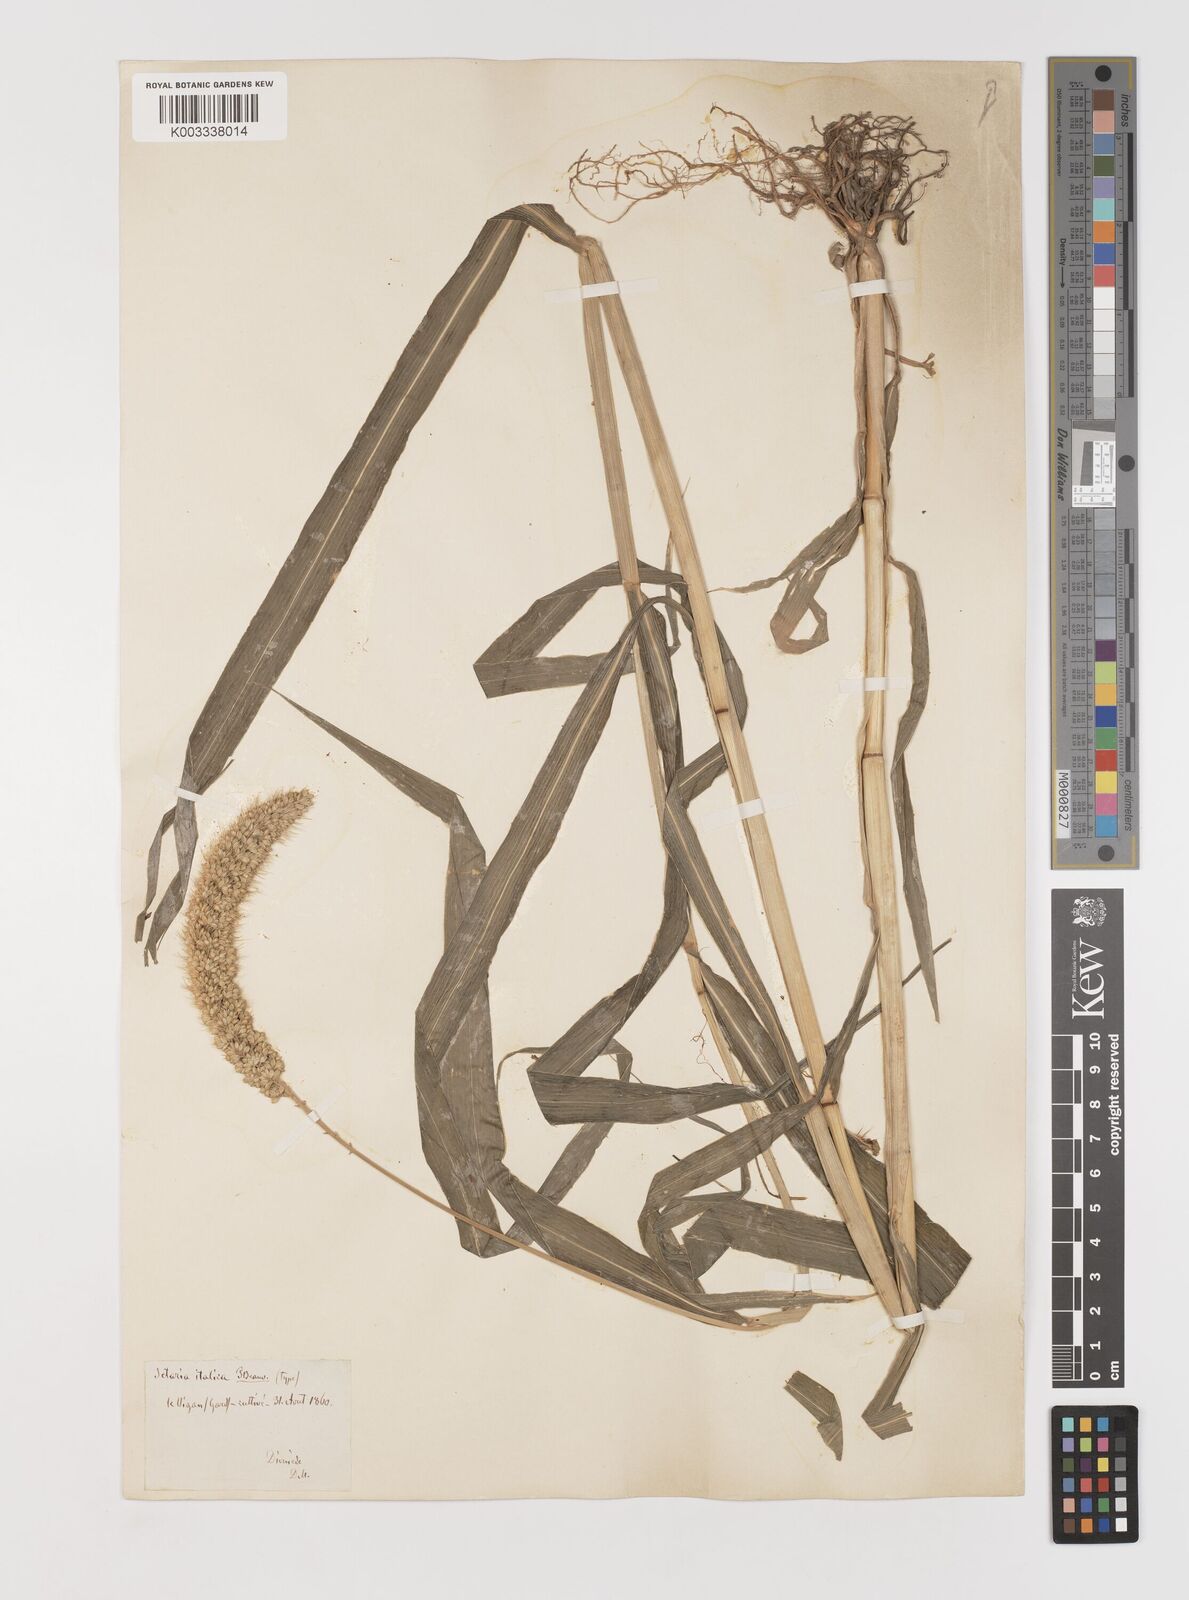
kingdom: Plantae
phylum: Tracheophyta
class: Liliopsida
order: Poales
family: Poaceae
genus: Setaria
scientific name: Setaria italica
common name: Foxtail bristle-grass
